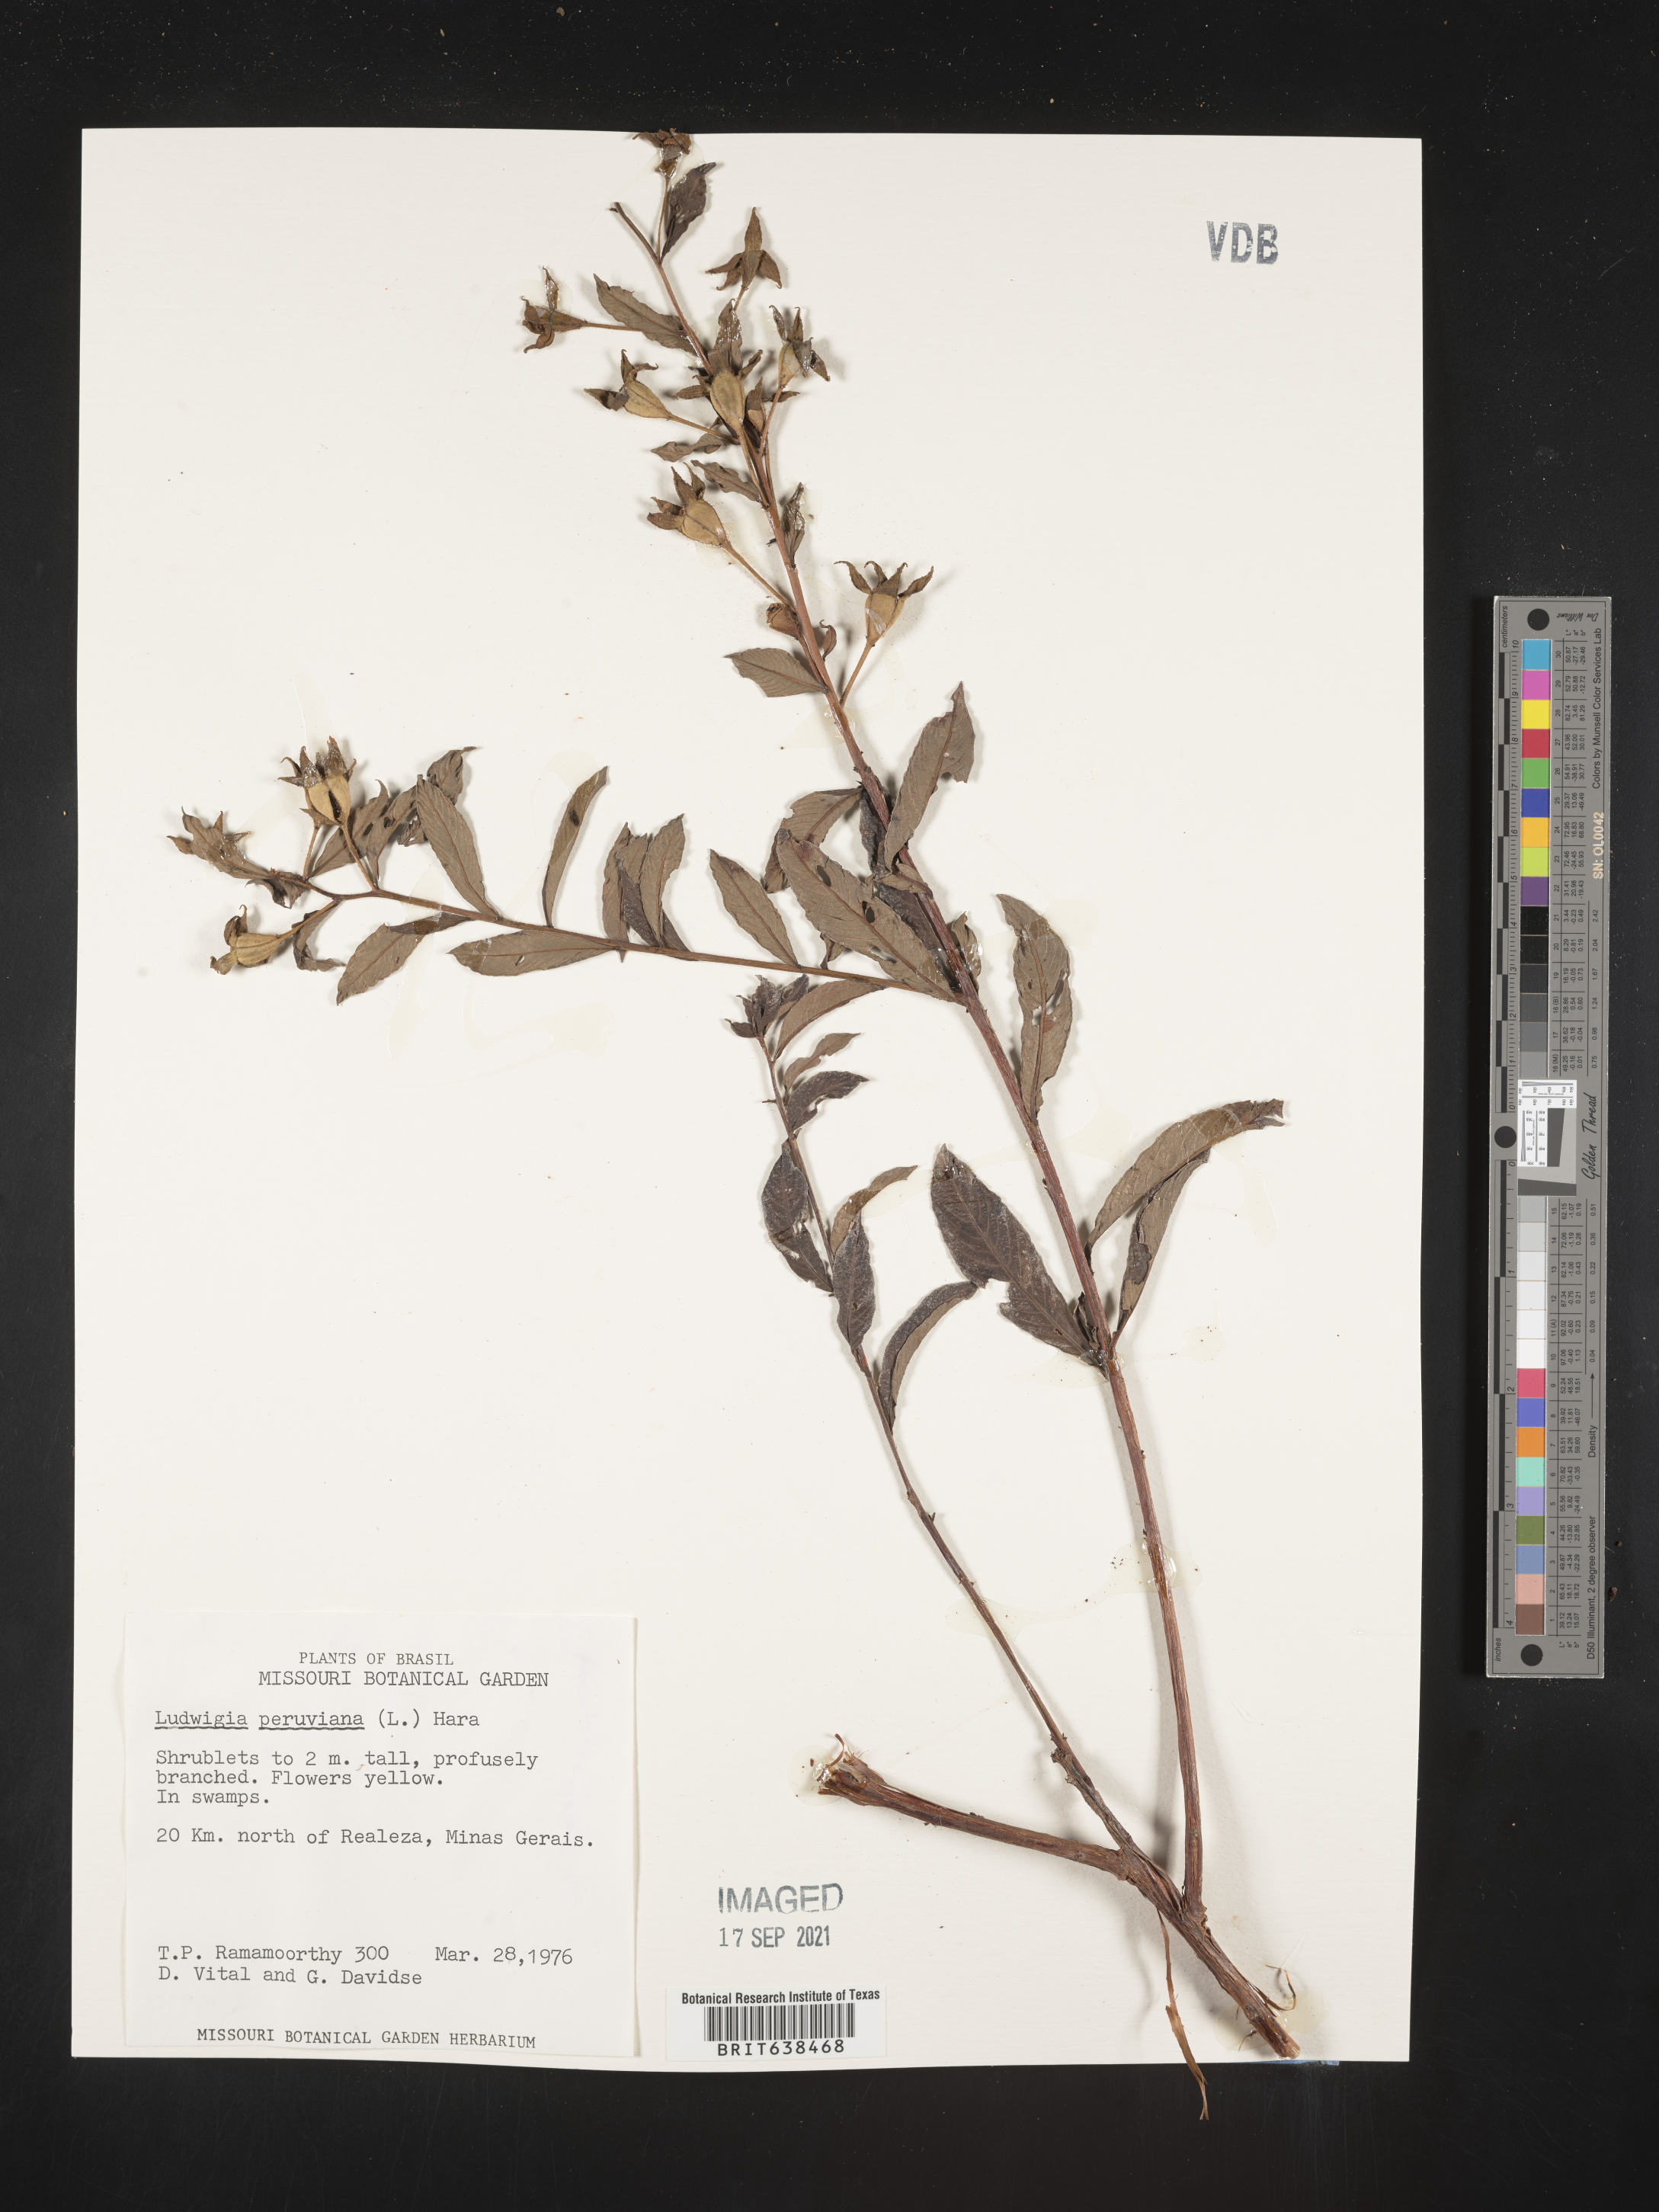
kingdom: Plantae
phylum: Tracheophyta
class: Magnoliopsida
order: Myrtales
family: Onagraceae
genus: Ludwigia
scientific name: Ludwigia
